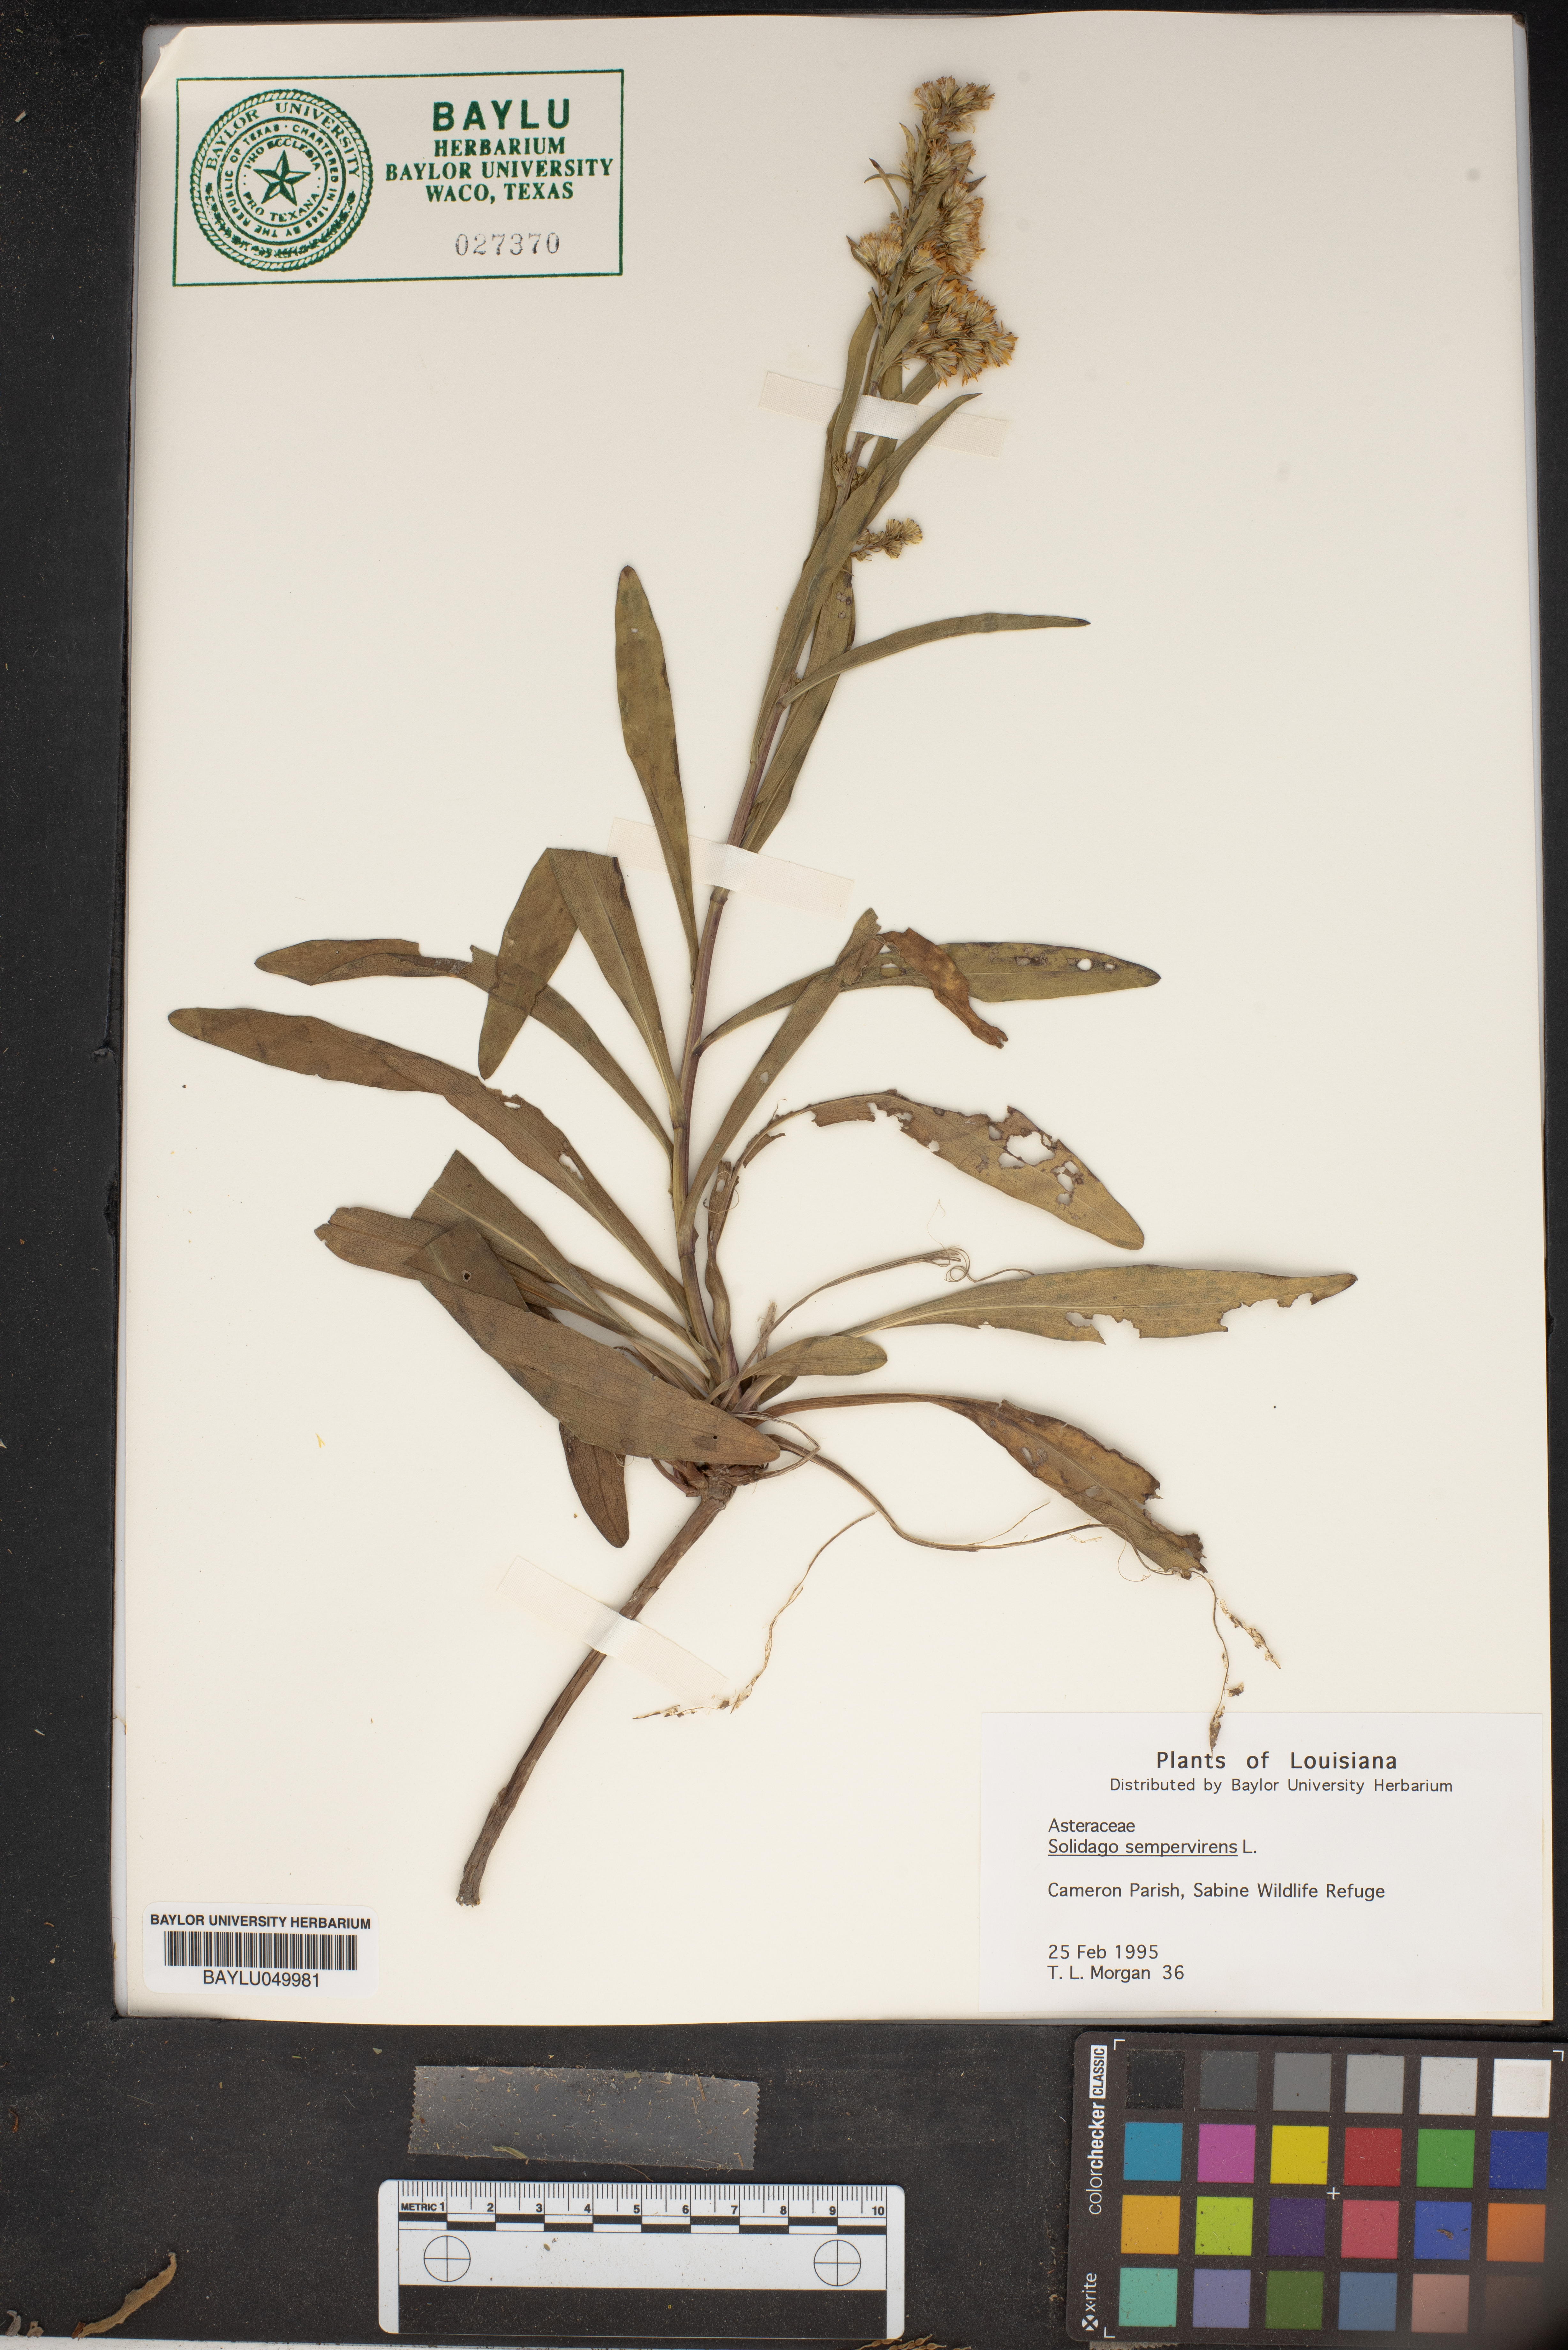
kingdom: Plantae
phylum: Tracheophyta
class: Magnoliopsida
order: Asterales
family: Asteraceae
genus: Solidago
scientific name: Solidago sempervirens
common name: Salt-marsh goldenrod
